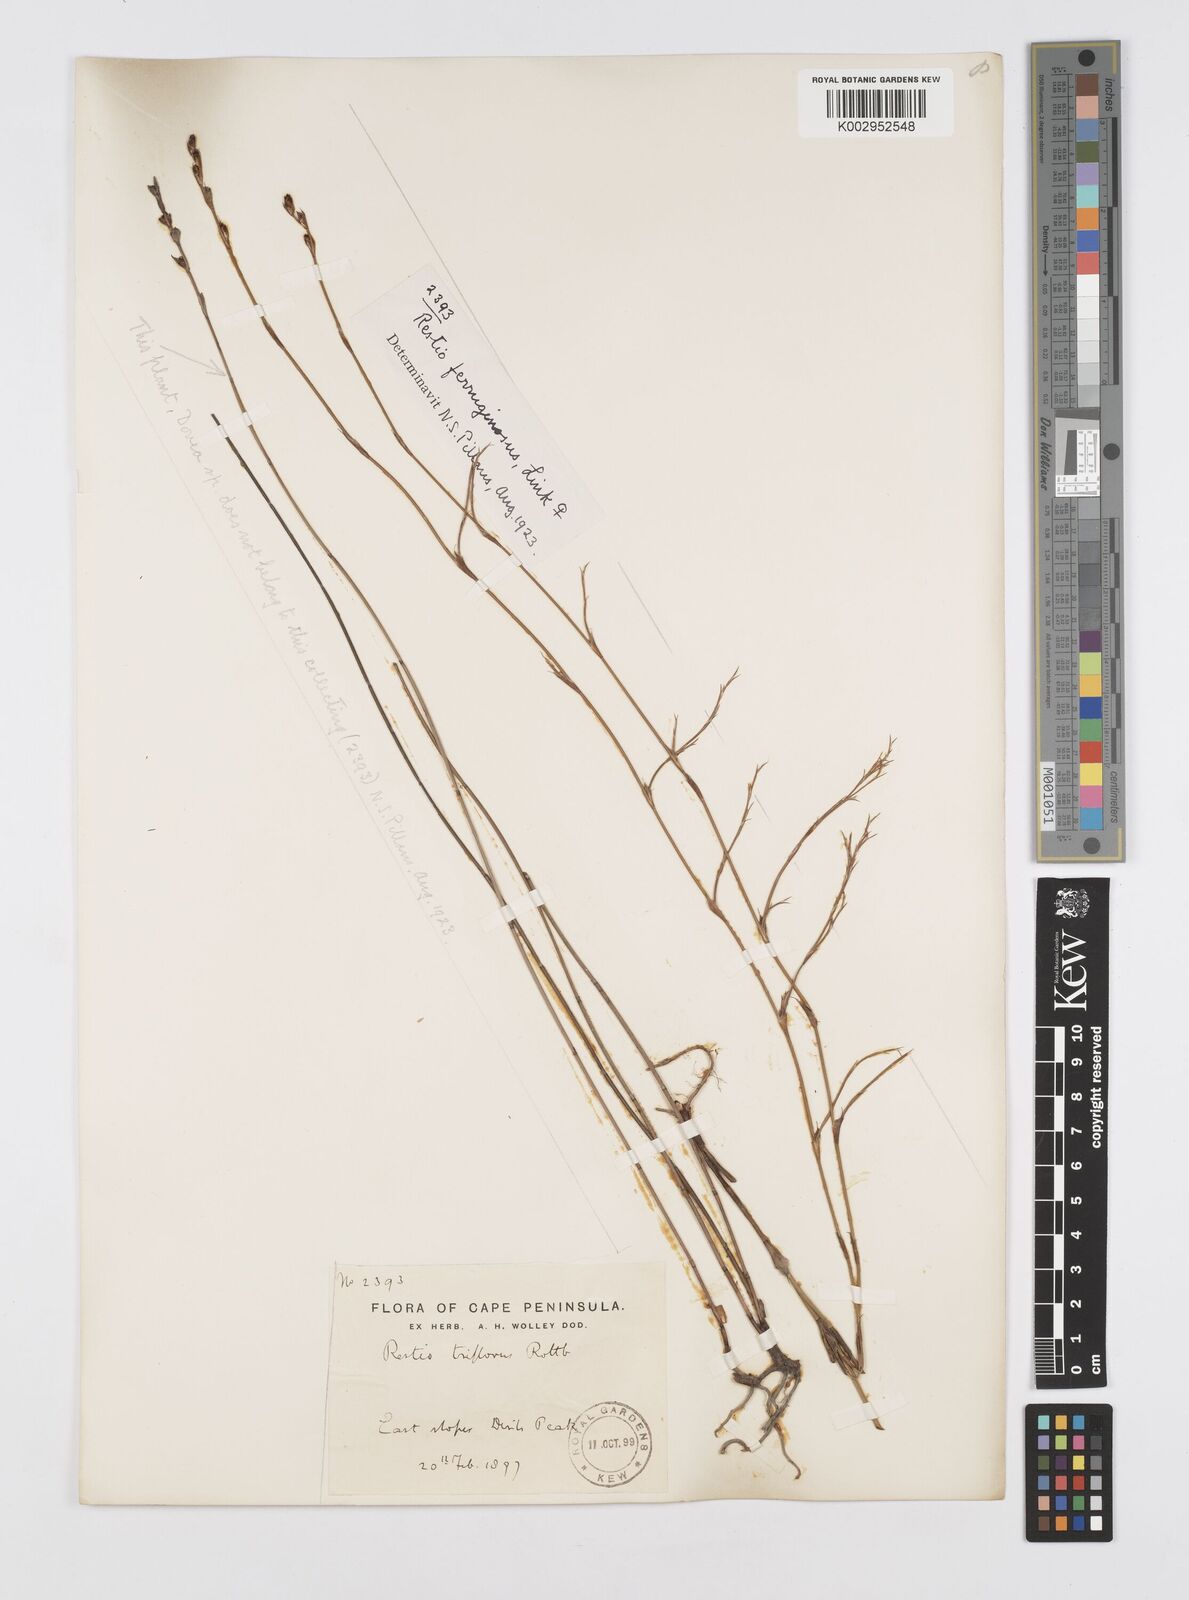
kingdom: Plantae
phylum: Tracheophyta
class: Liliopsida
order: Poales
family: Restionaceae
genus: Restio
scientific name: Restio gaudichaudianus
